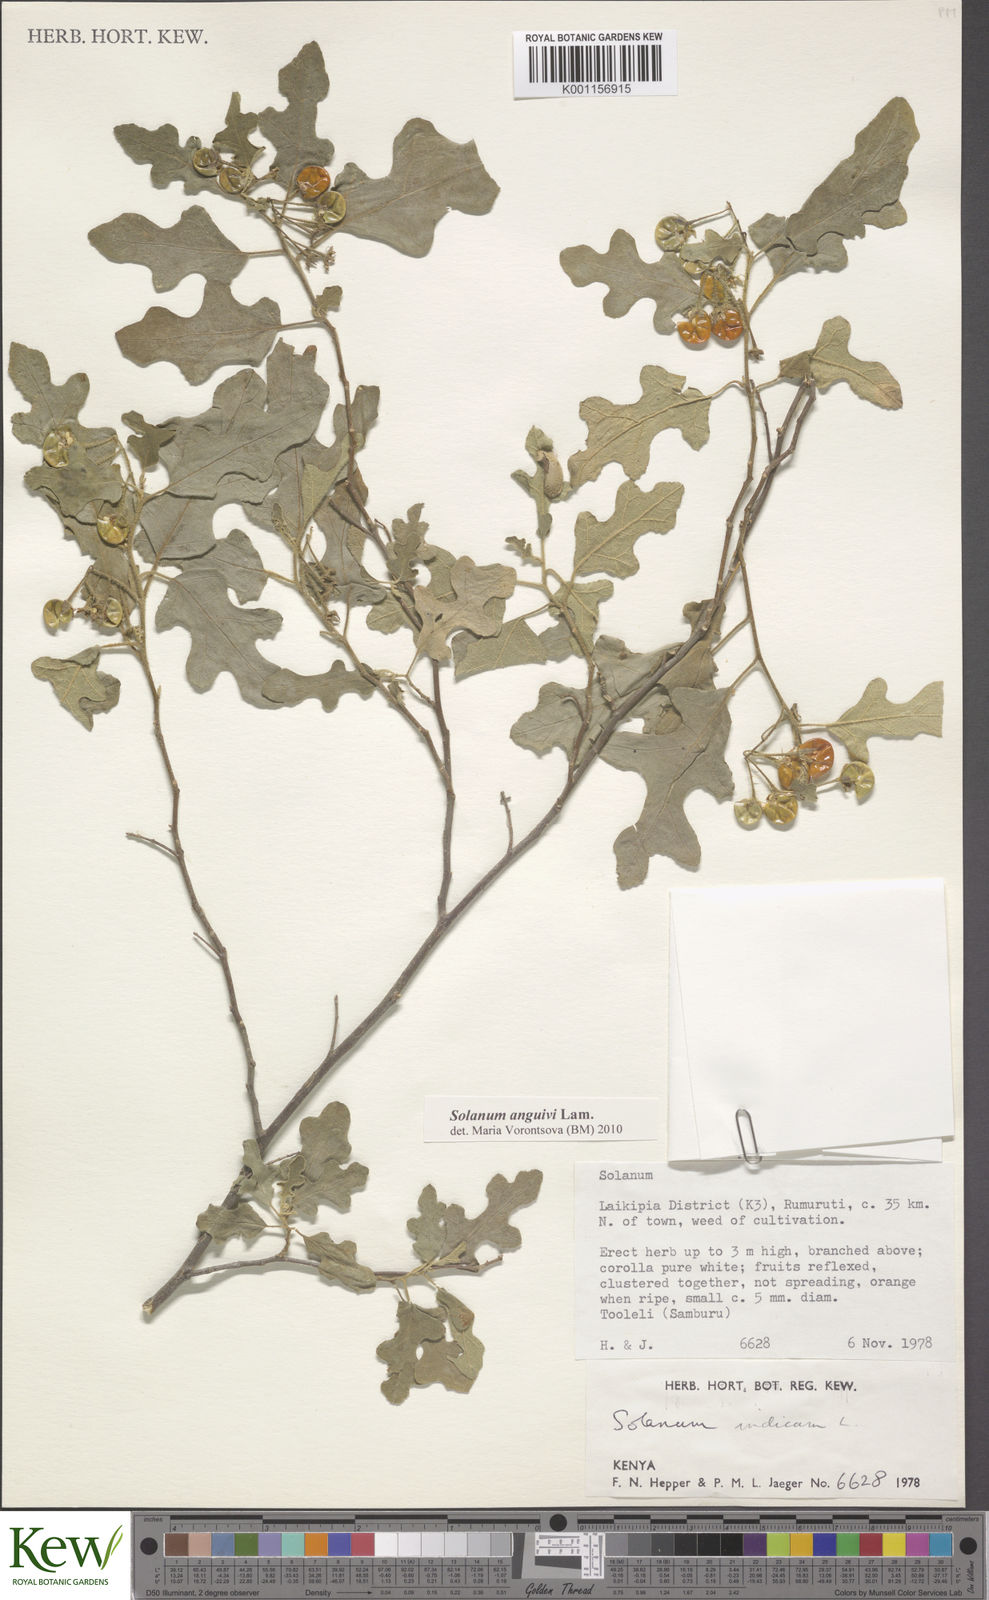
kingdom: Plantae
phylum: Tracheophyta
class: Magnoliopsida
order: Solanales
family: Solanaceae
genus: Solanum
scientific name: Solanum anguivi
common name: Forest bitterberry
